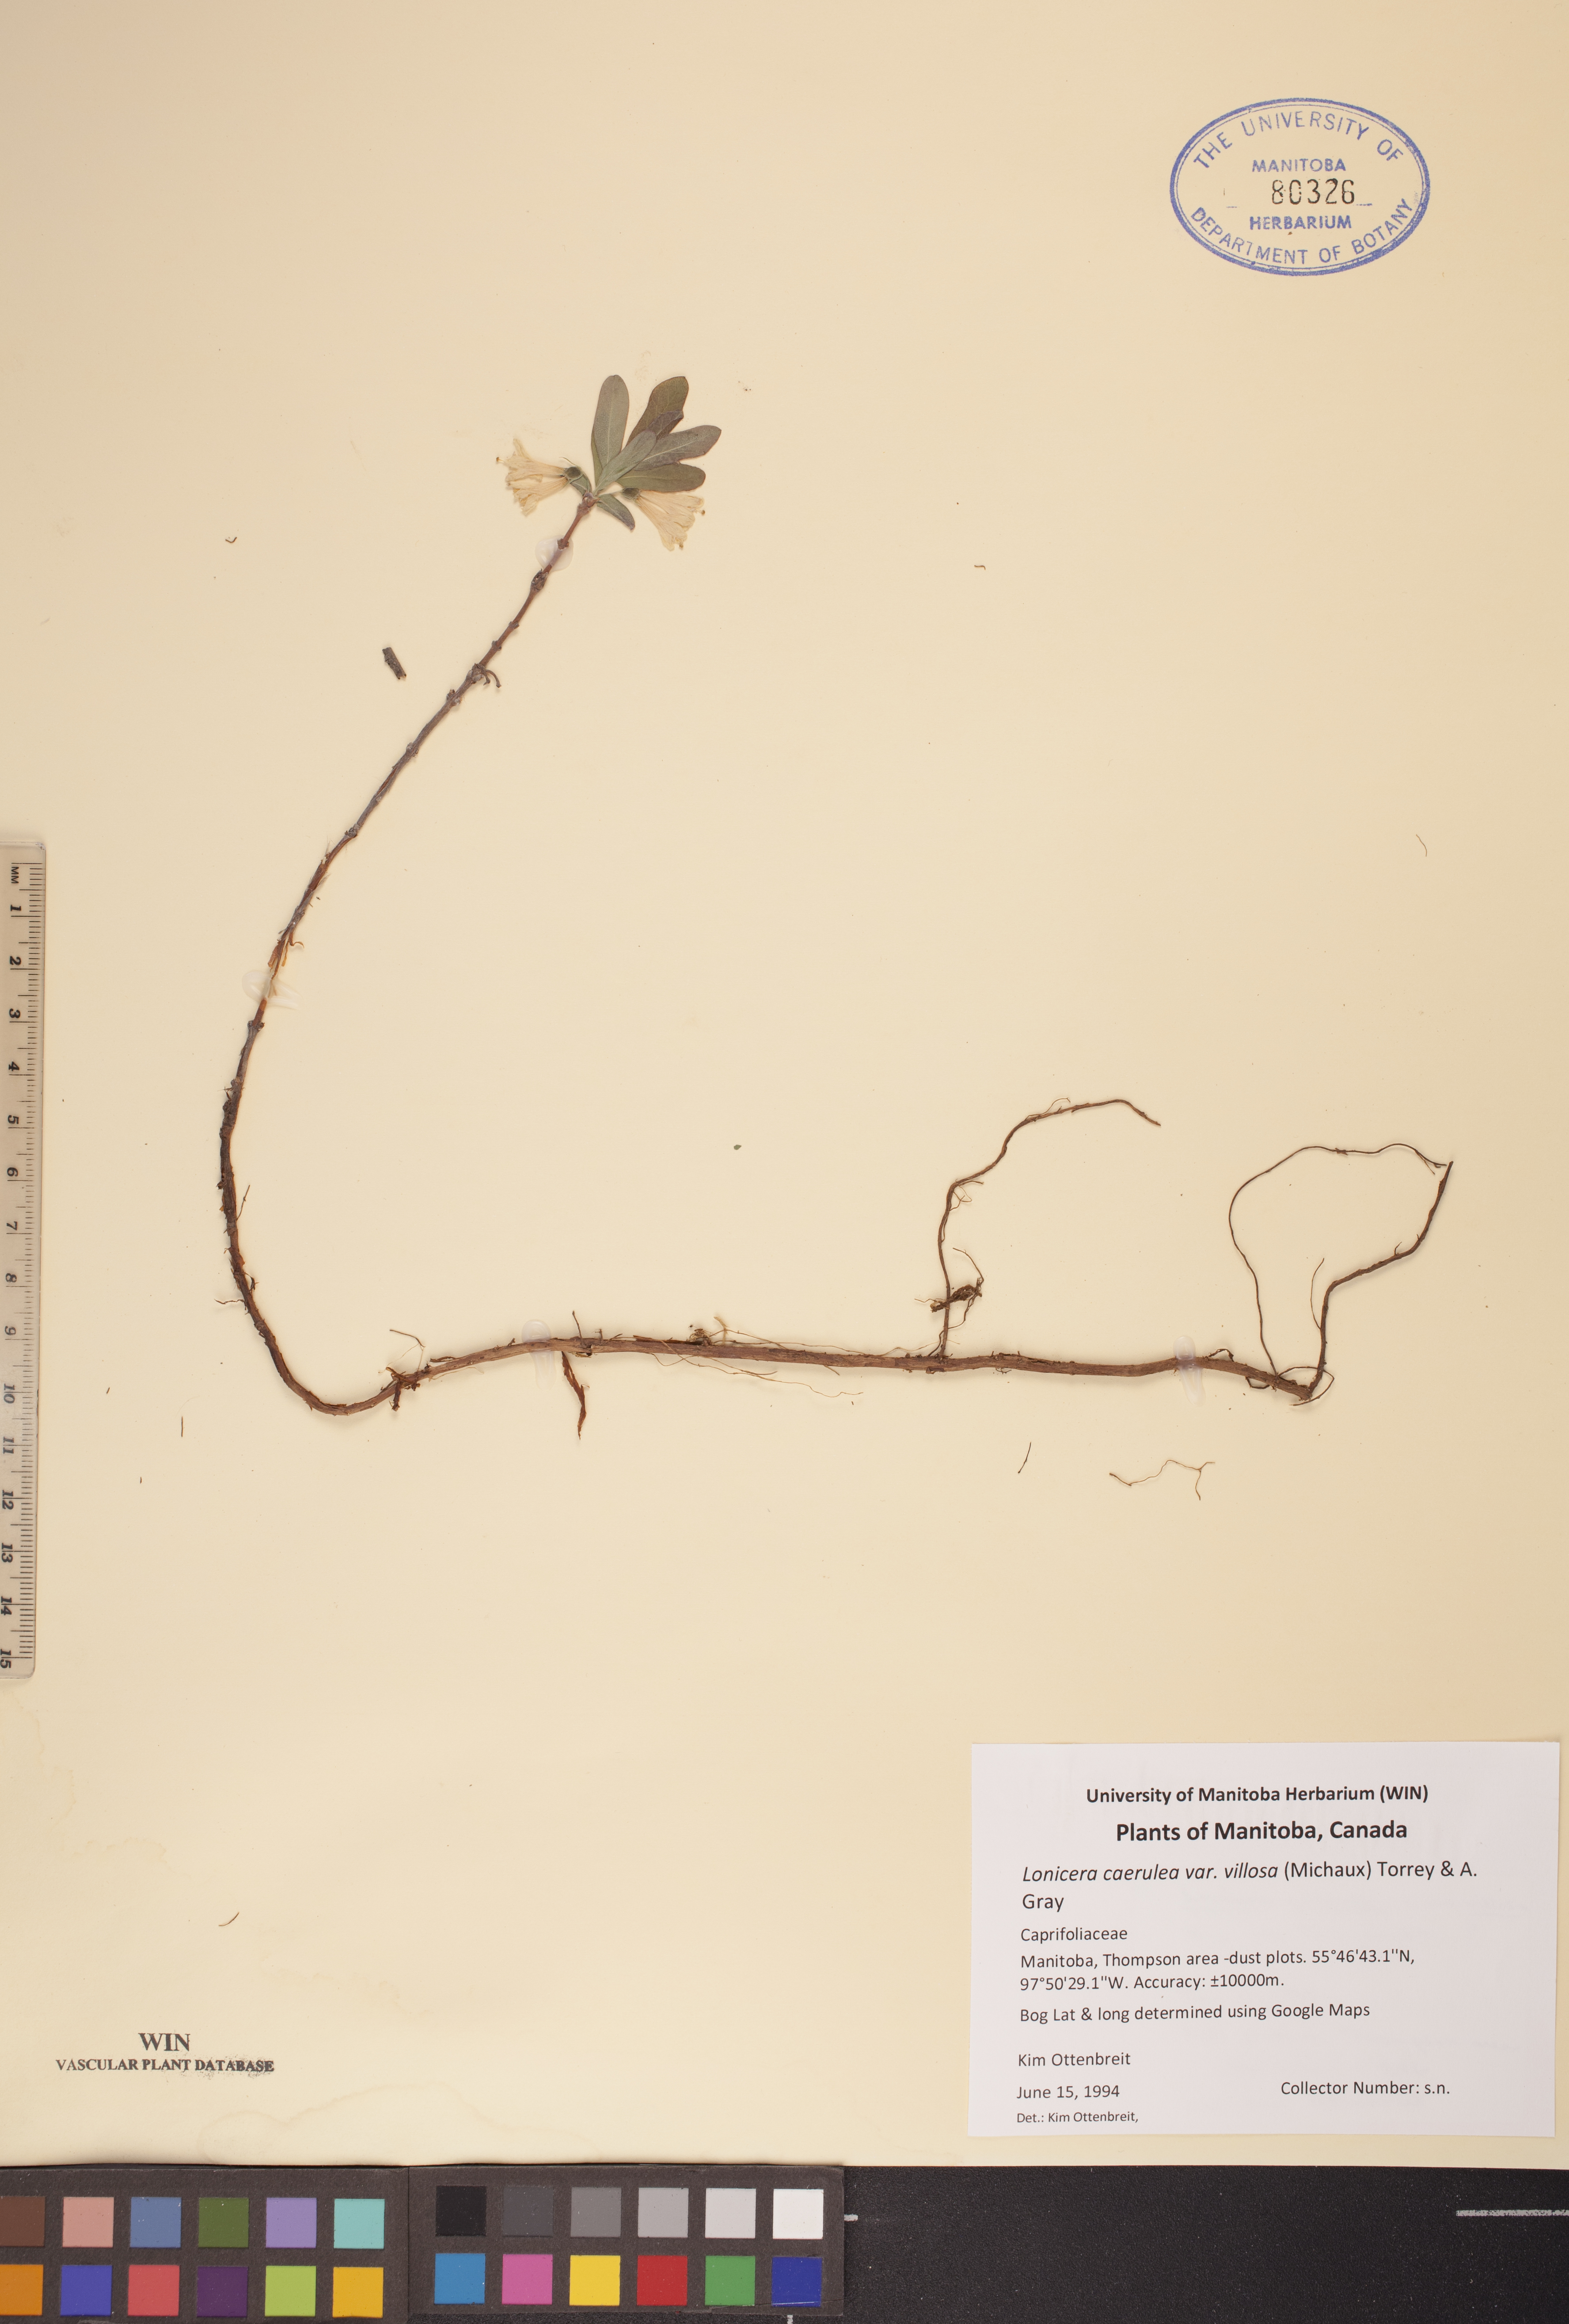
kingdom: Plantae
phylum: Tracheophyta
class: Magnoliopsida
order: Dipsacales
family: Caprifoliaceae
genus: Lonicera
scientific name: Lonicera villosa
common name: Mountain fly-honeysuckle
